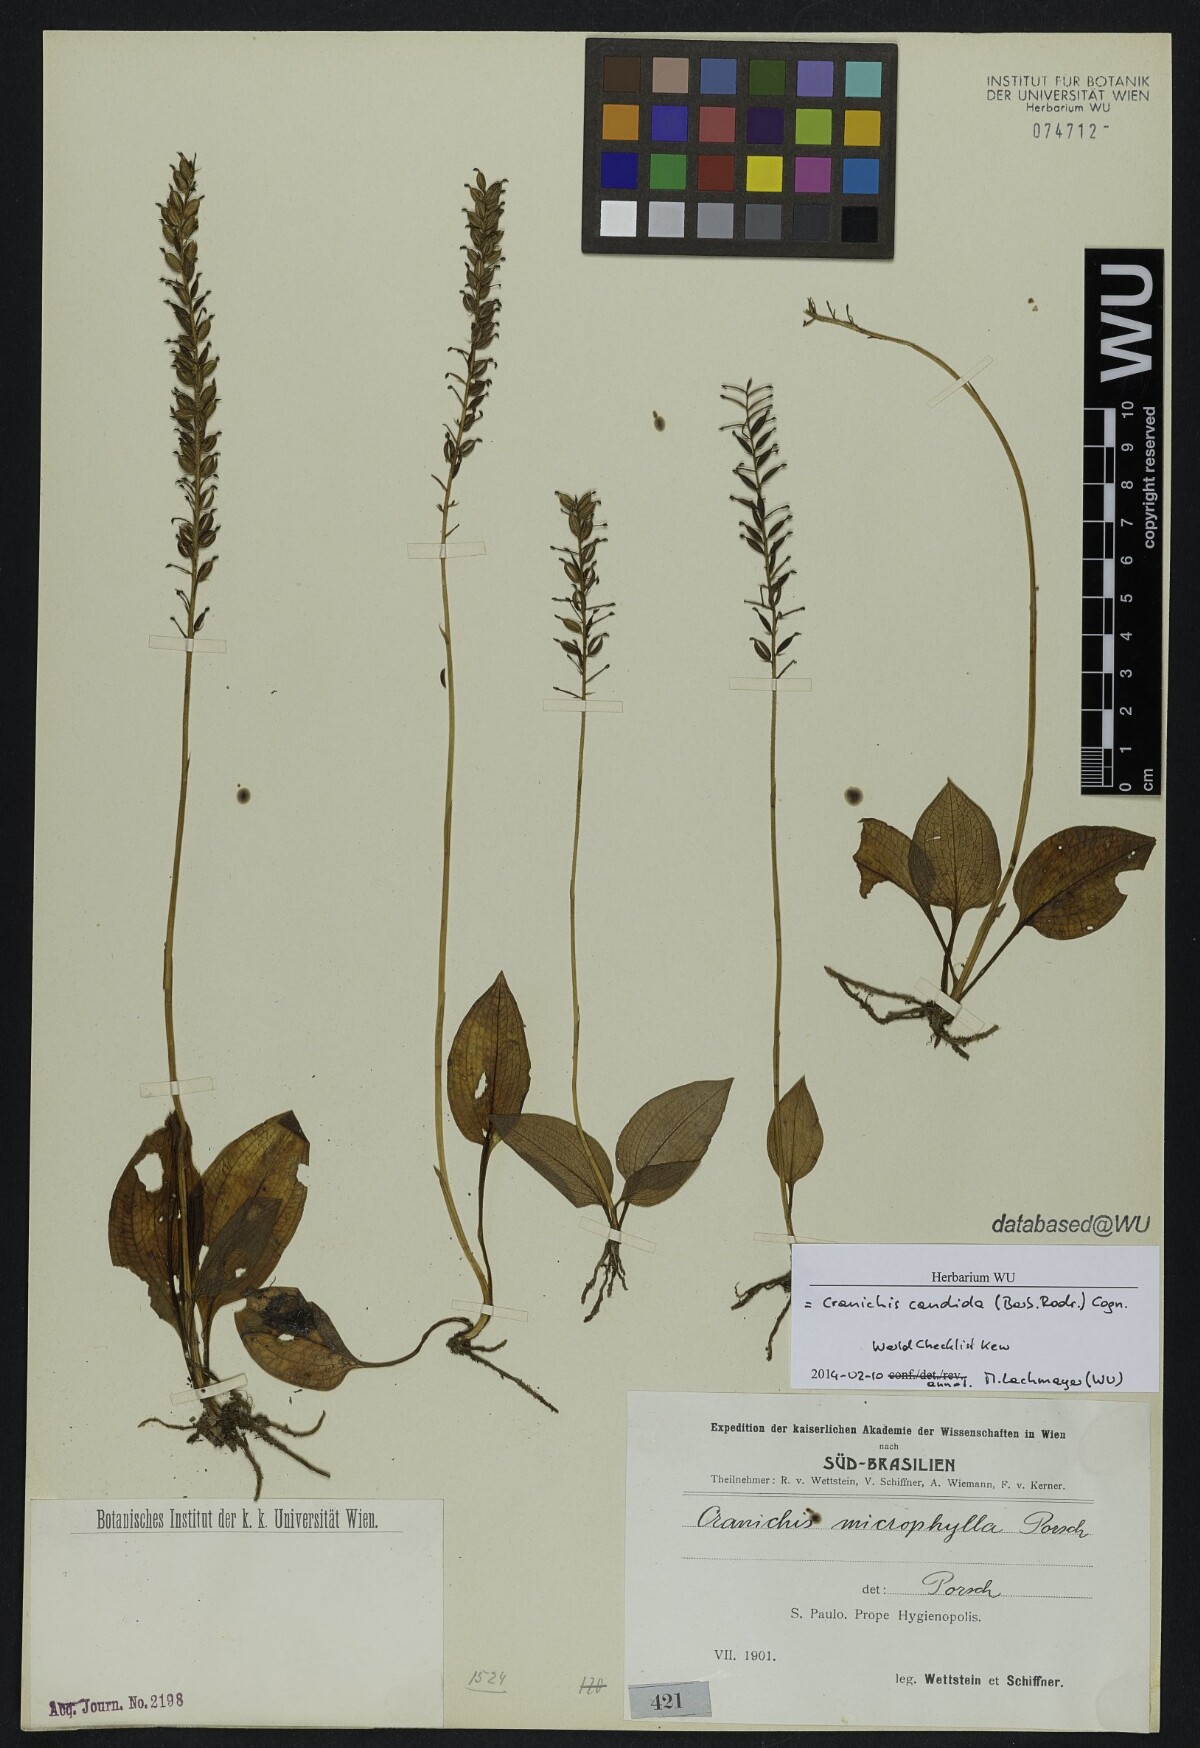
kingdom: Plantae
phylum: Tracheophyta
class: Liliopsida
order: Asparagales
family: Orchidaceae
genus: Cranichis
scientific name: Cranichis candida
